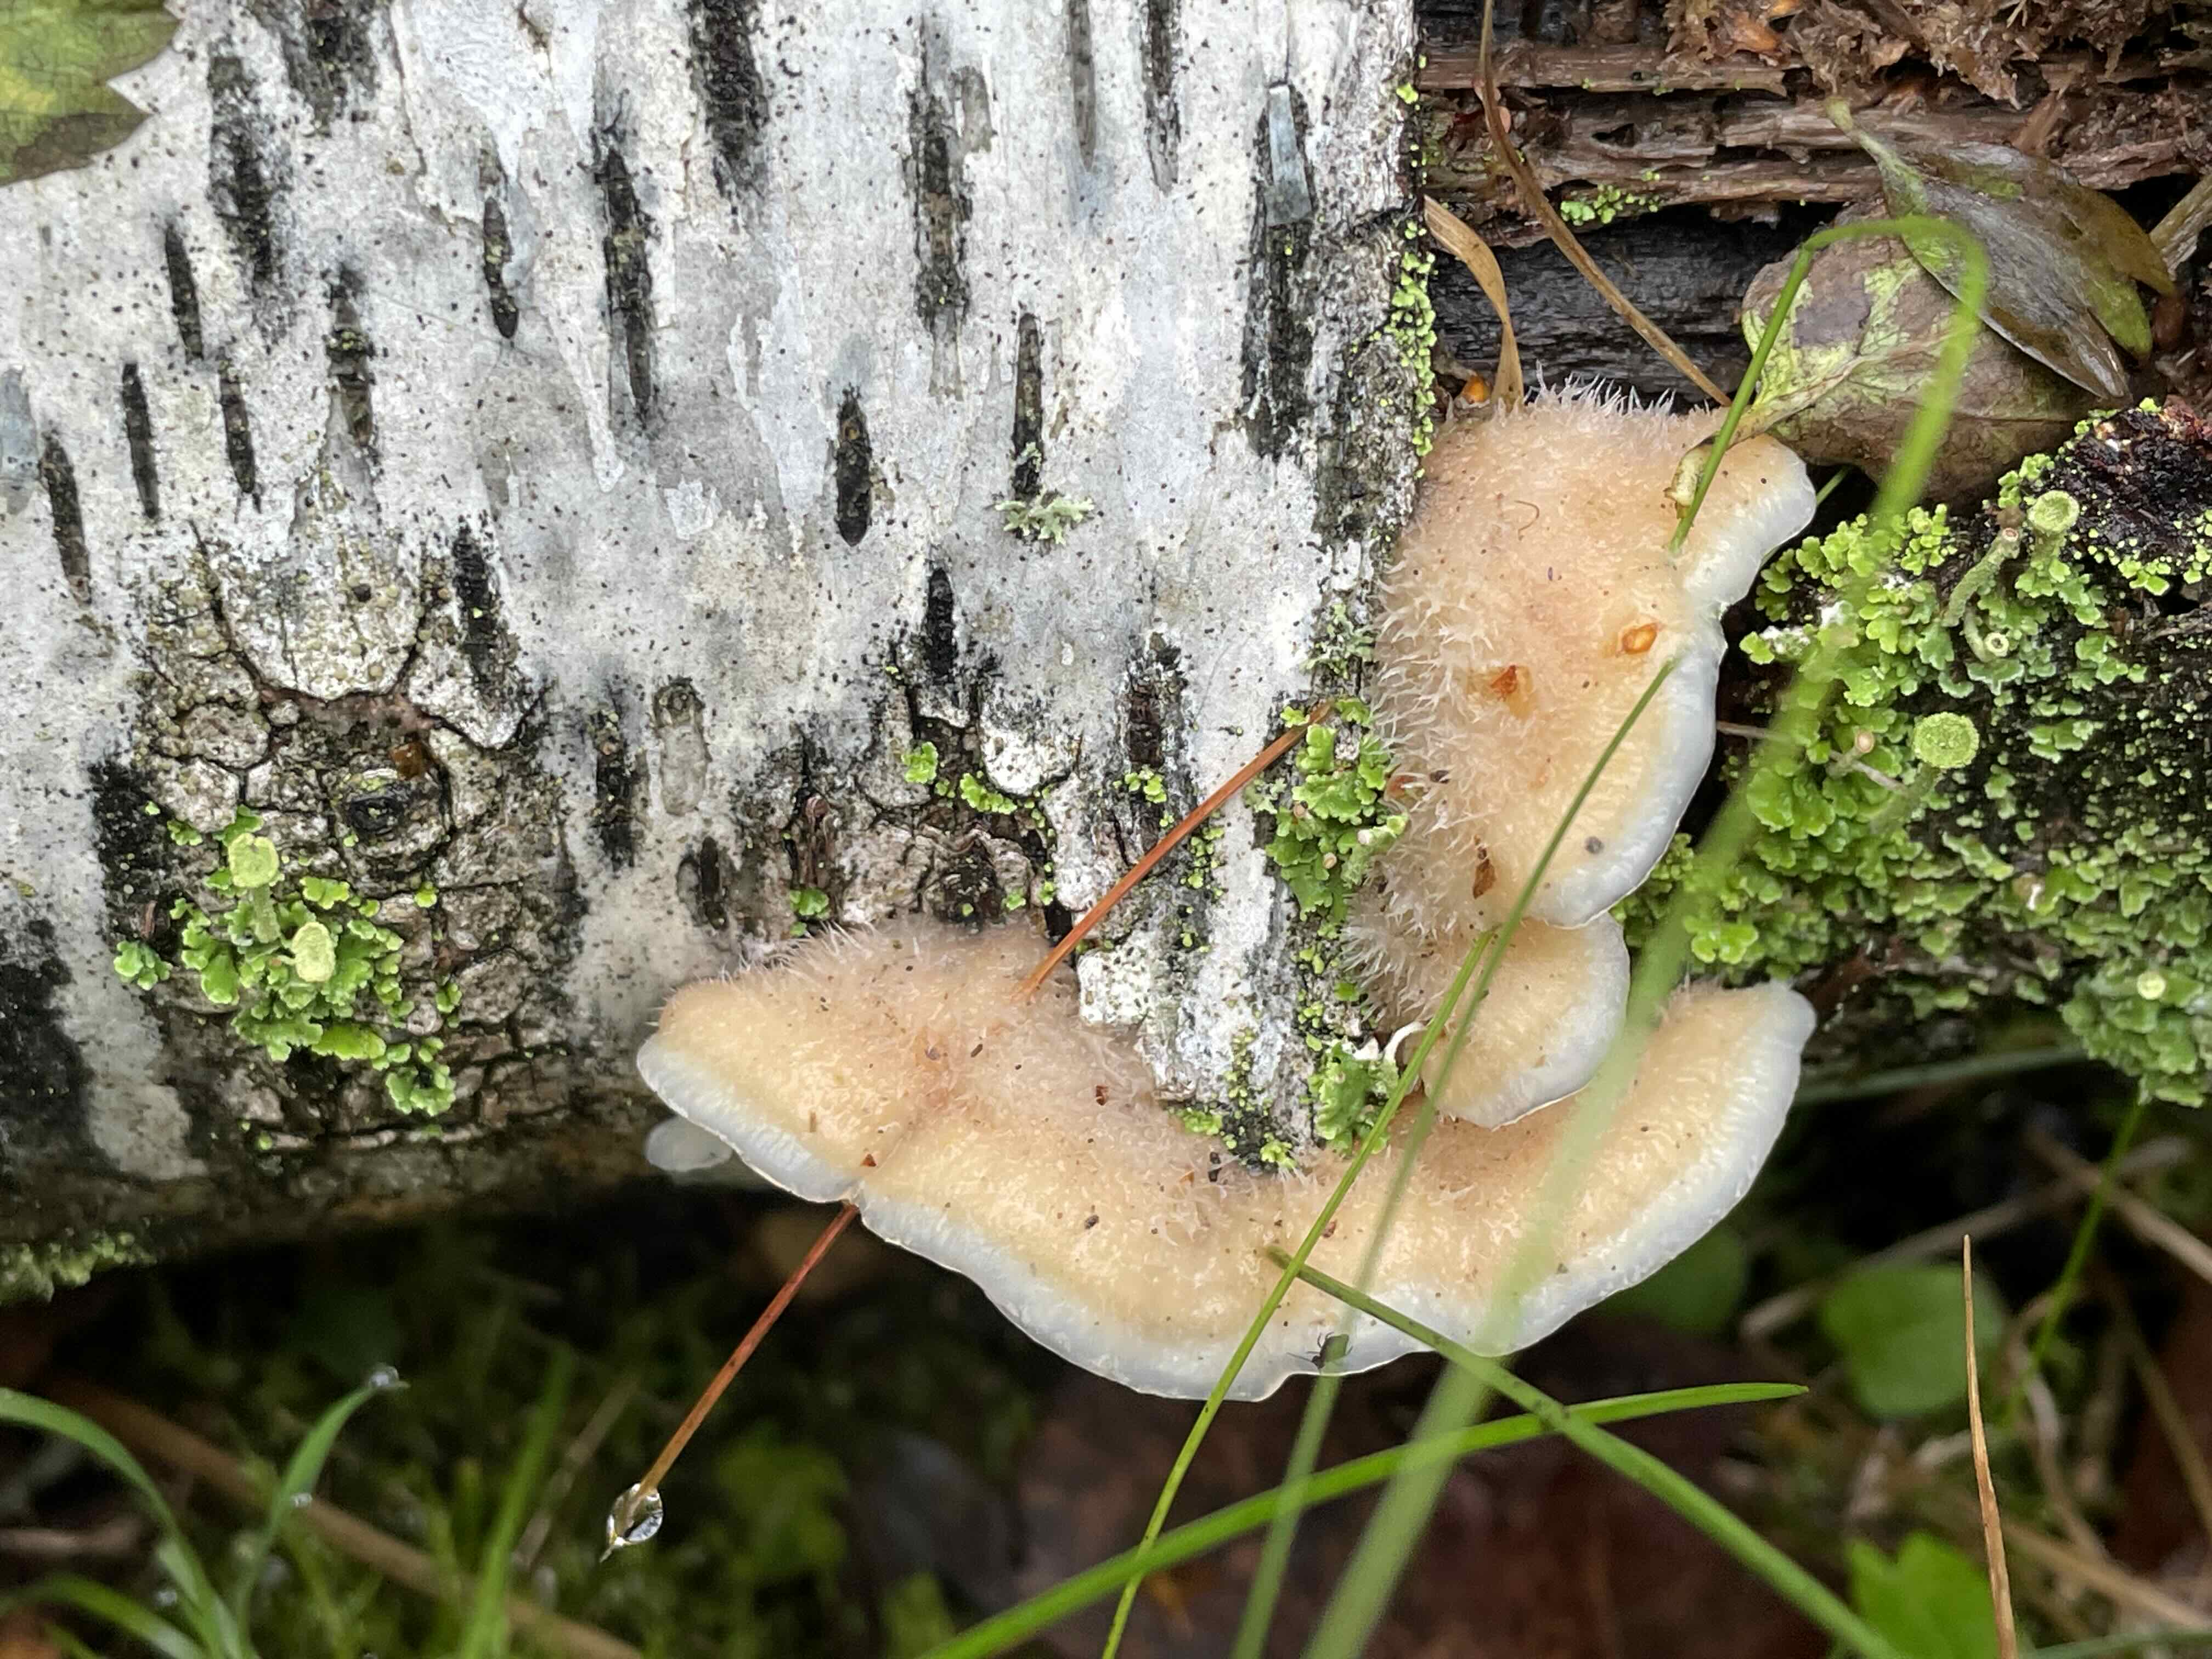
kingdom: Fungi
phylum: Basidiomycota
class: Agaricomycetes
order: Polyporales
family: Meruliaceae
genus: Phlebia
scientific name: Phlebia tremellosa
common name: bævrende åresvamp
